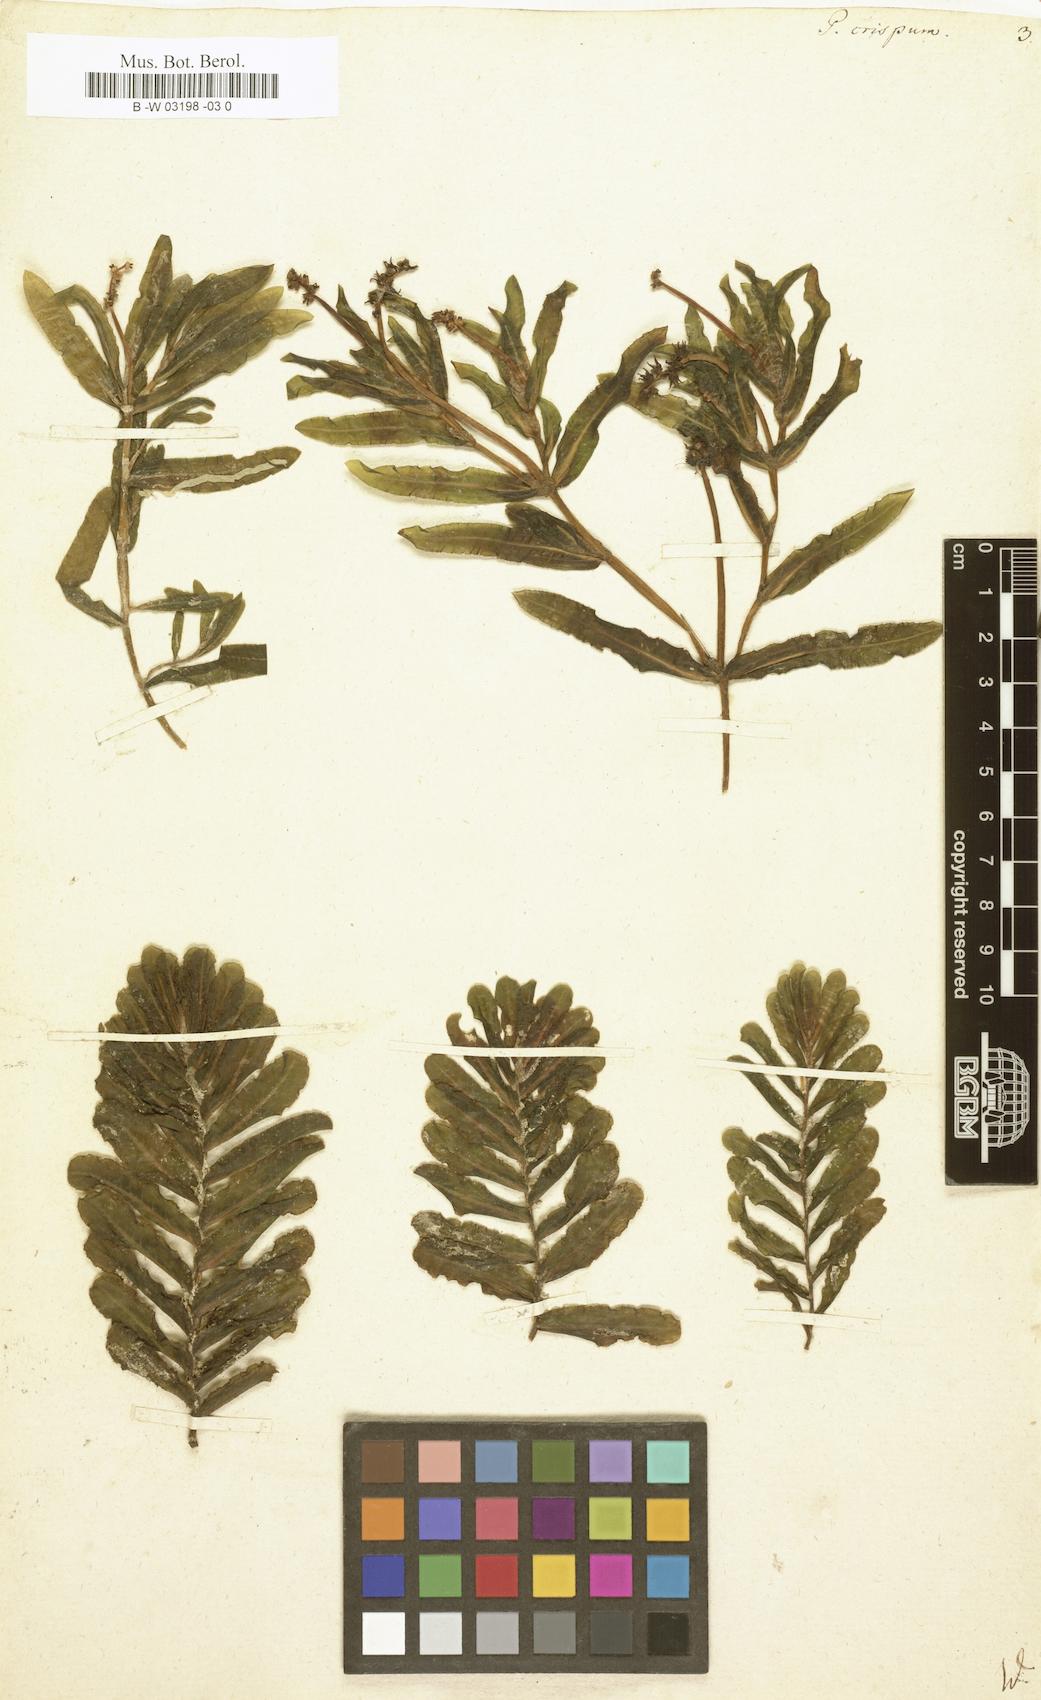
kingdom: Plantae
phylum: Tracheophyta
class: Liliopsida
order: Alismatales
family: Potamogetonaceae
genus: Potamogeton
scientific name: Potamogeton crispus
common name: Curled pondweed
